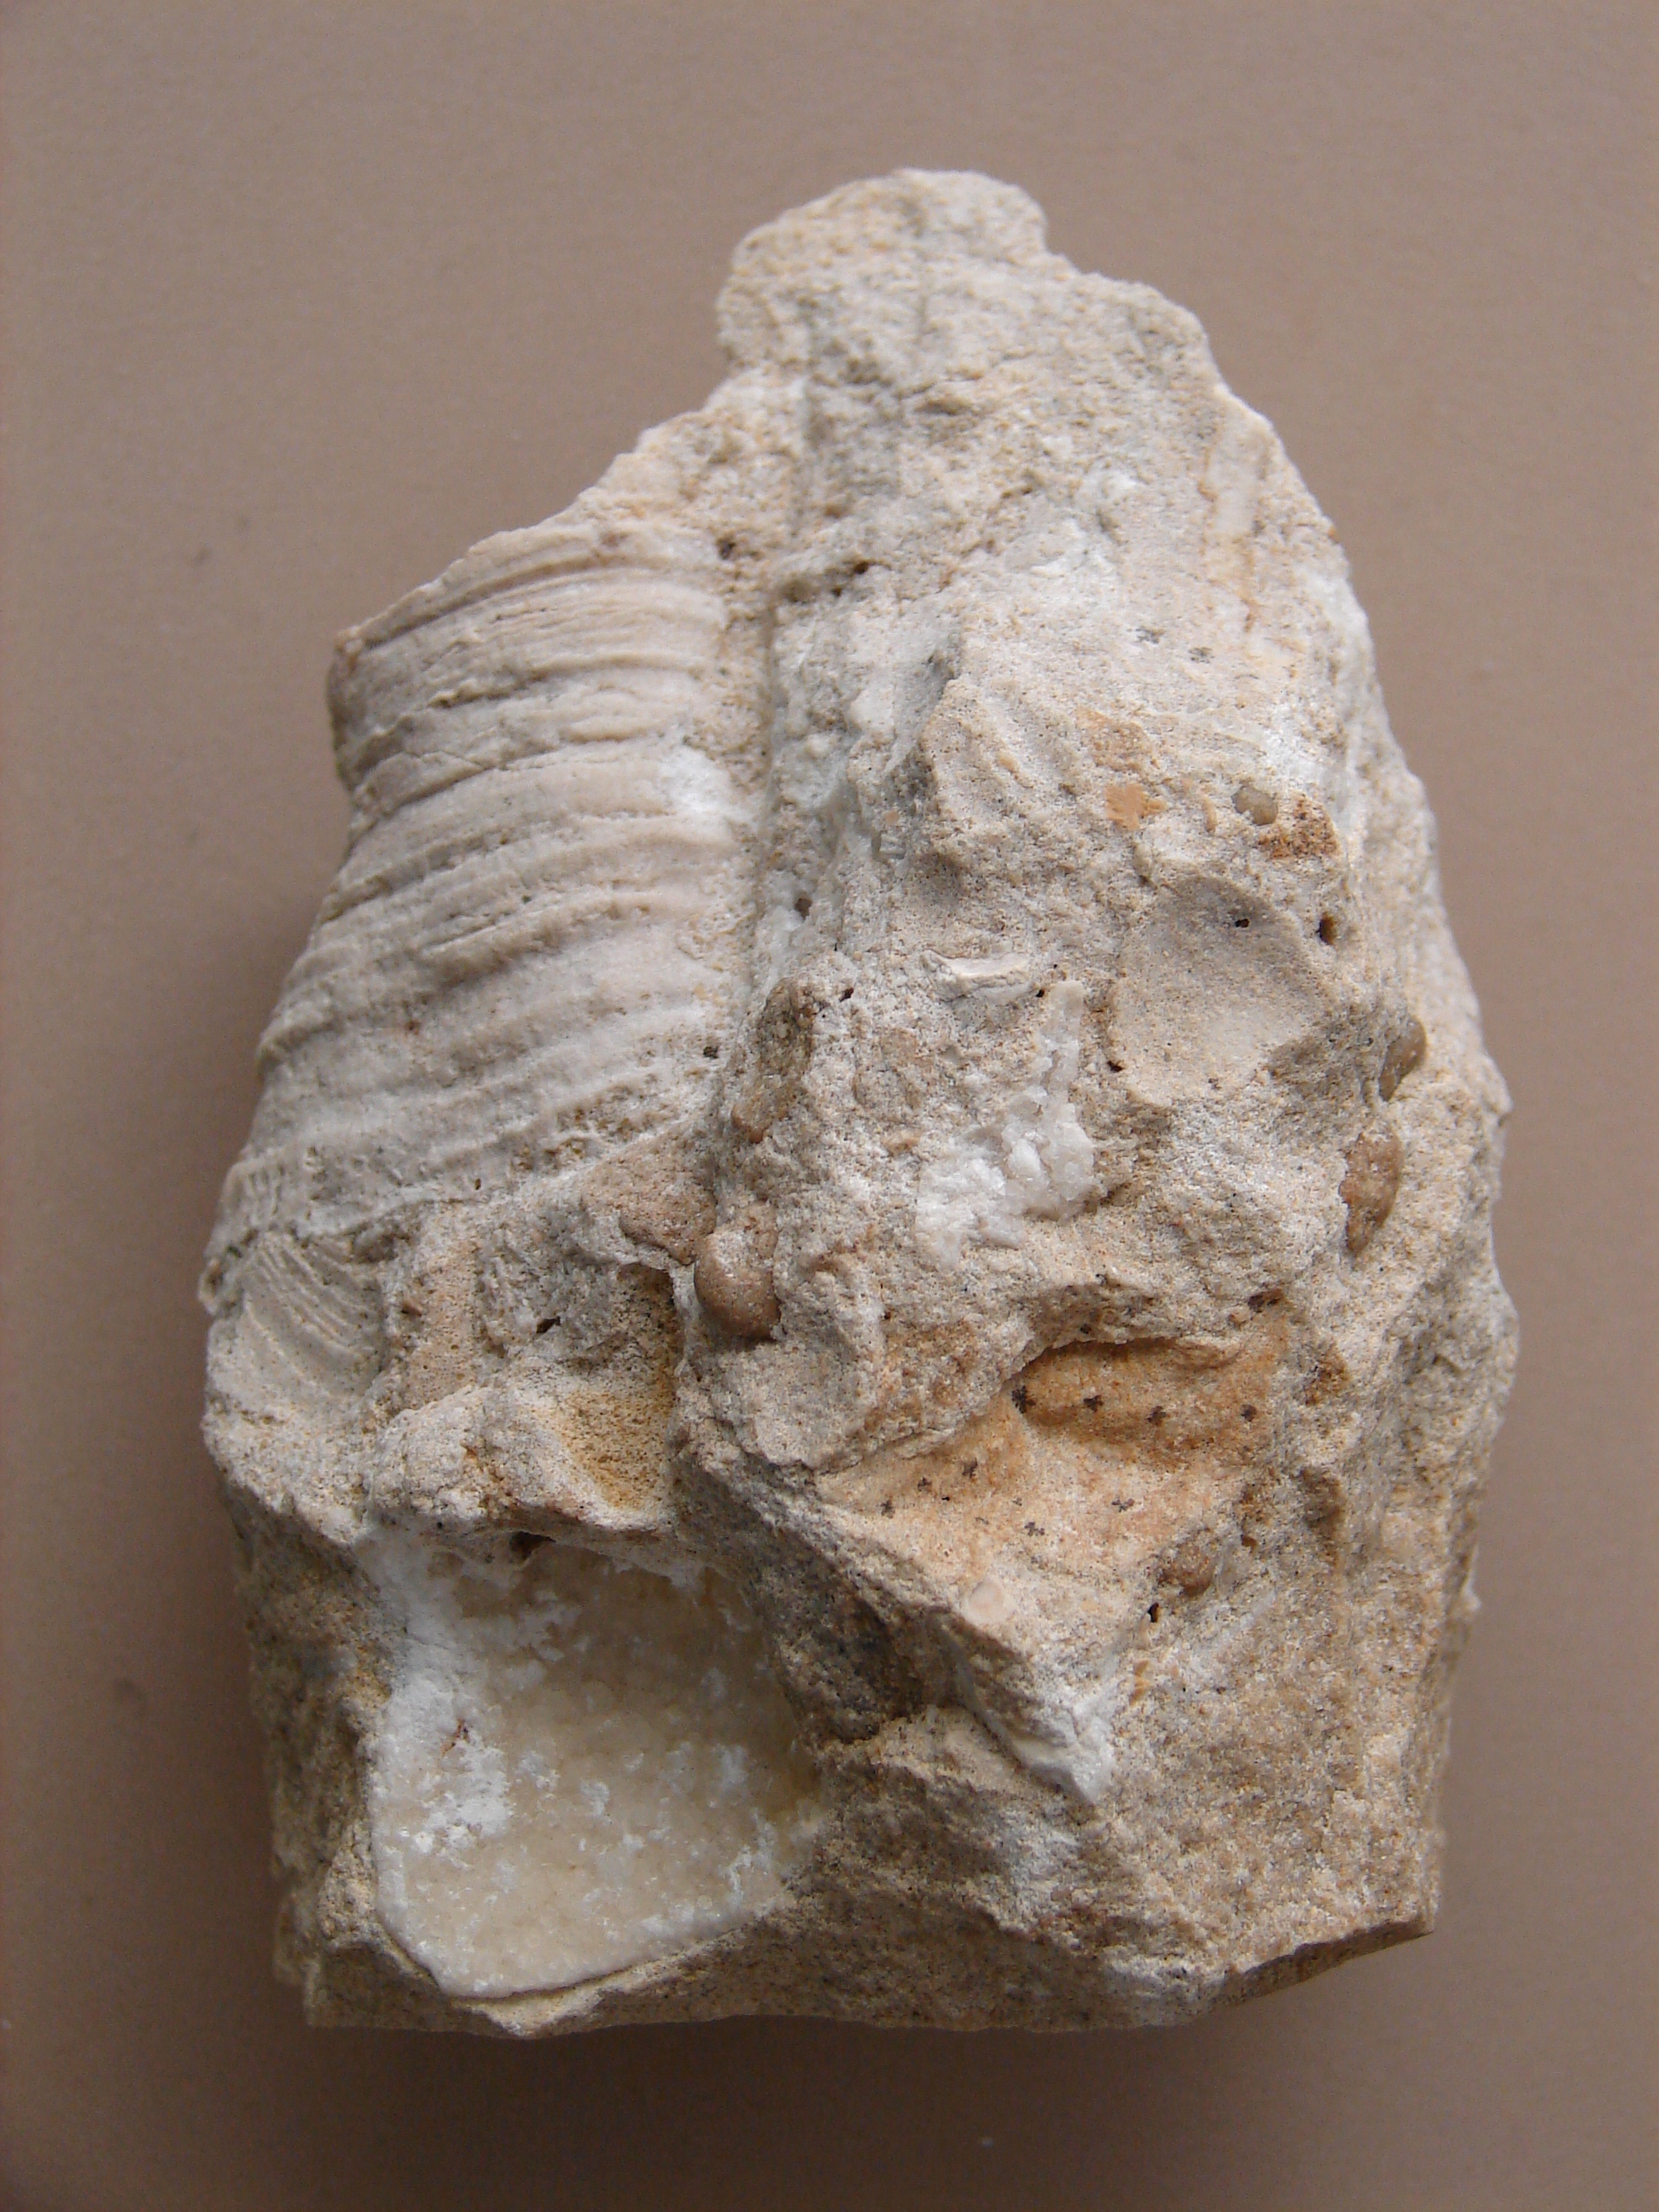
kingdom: Animalia
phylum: Cnidaria
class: Anthozoa
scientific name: Anthozoa
